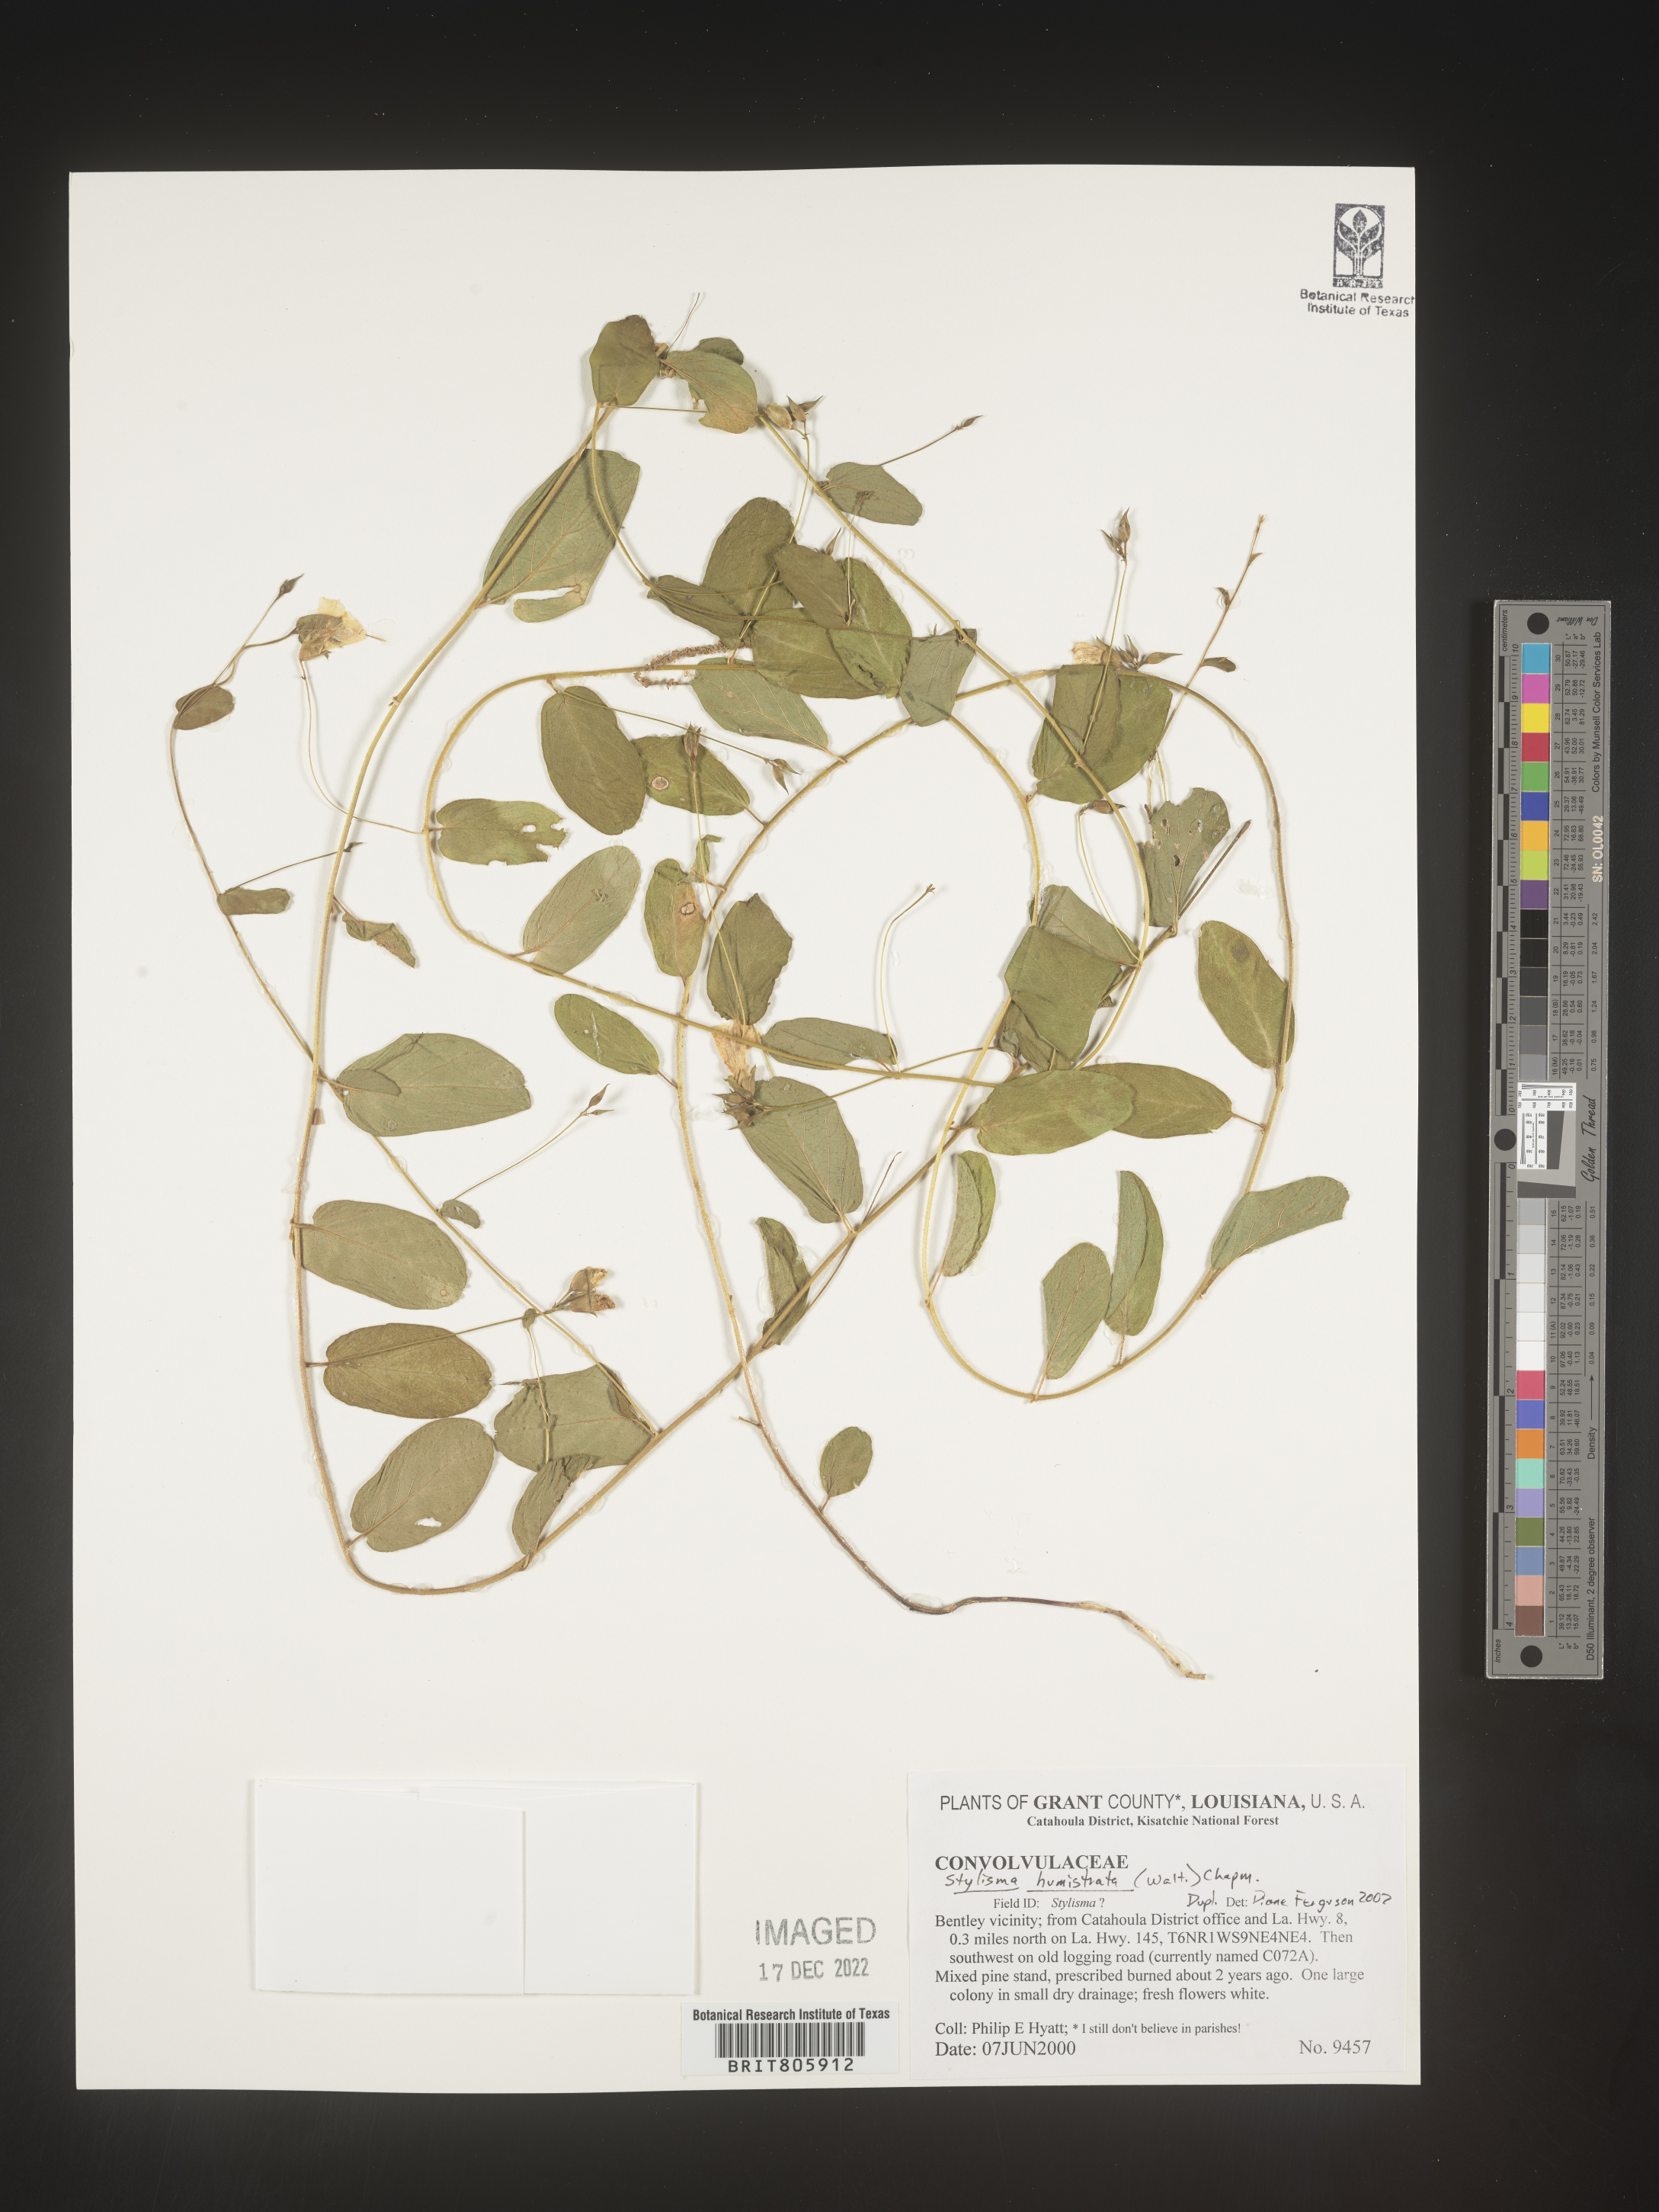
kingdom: Plantae
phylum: Tracheophyta
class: Magnoliopsida
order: Solanales
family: Convolvulaceae
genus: Stylisma
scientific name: Stylisma
